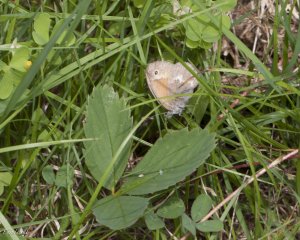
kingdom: Animalia
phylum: Arthropoda
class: Insecta
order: Lepidoptera
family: Nymphalidae
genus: Coenonympha
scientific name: Coenonympha tullia
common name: Large Heath
